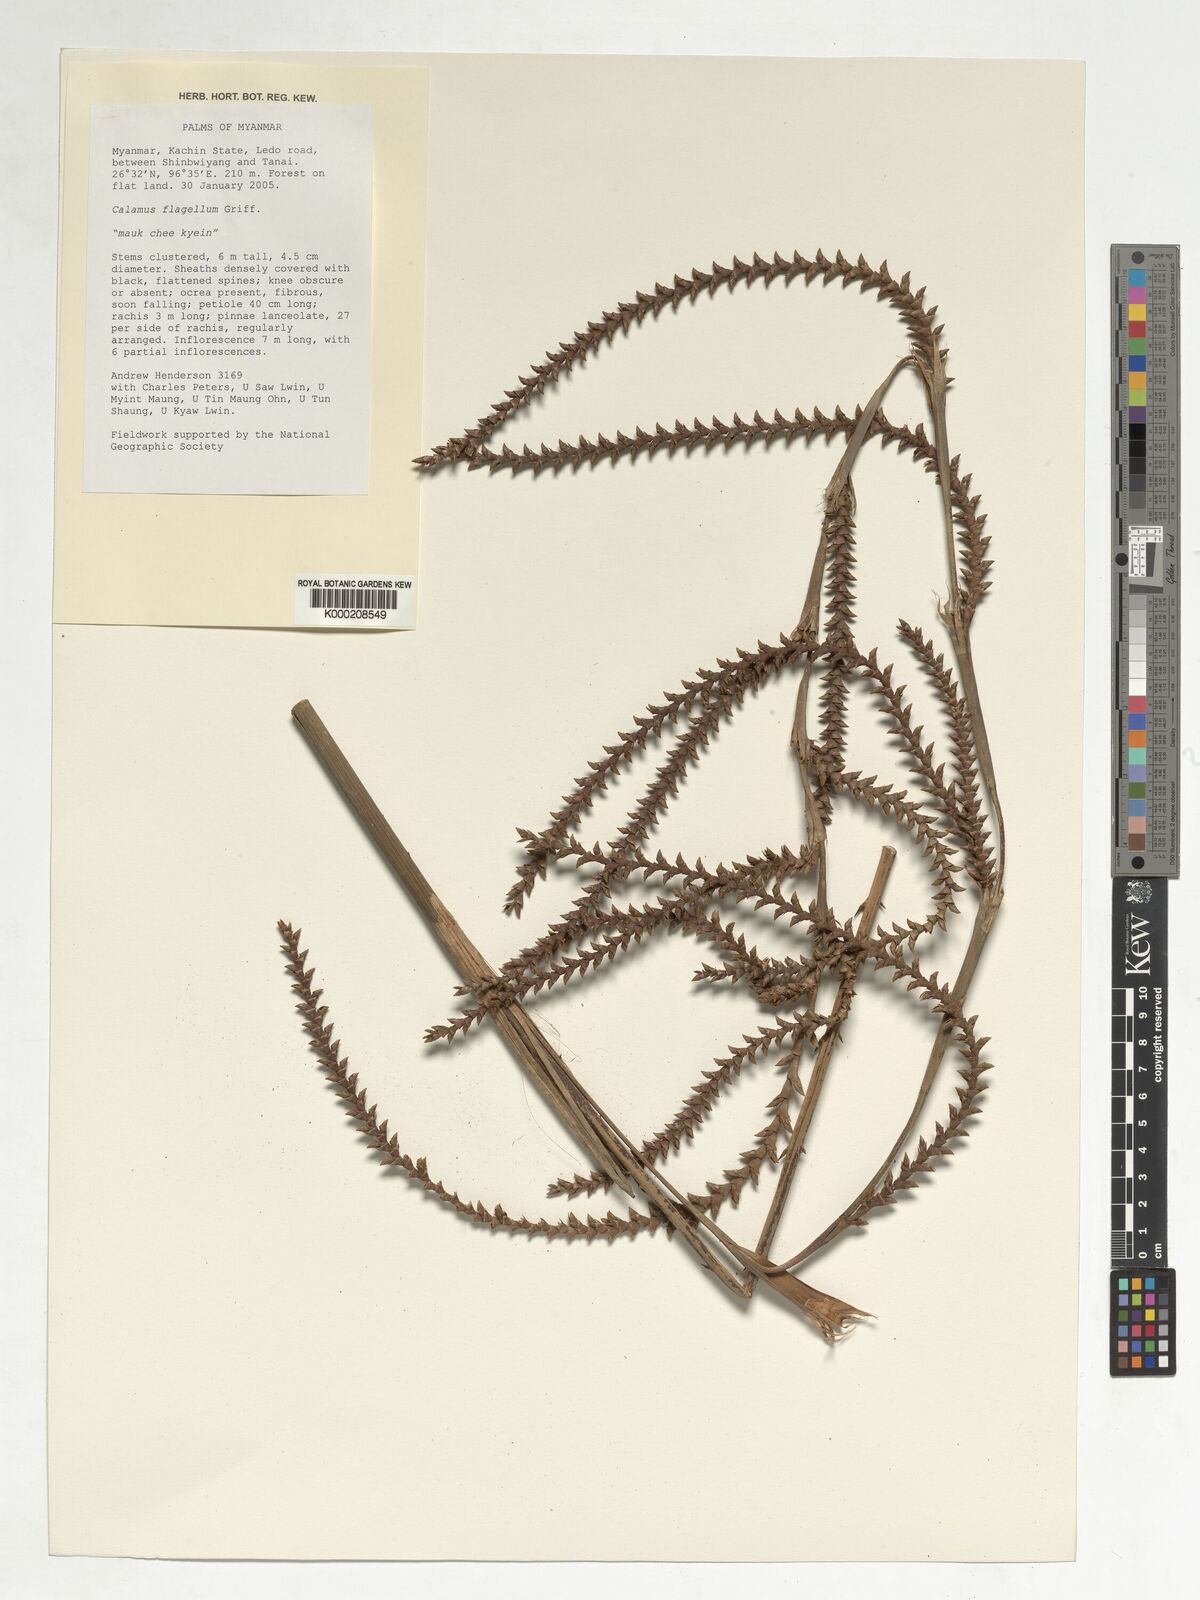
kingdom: Plantae
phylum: Tracheophyta
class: Liliopsida
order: Arecales
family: Arecaceae
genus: Calamus
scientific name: Calamus
